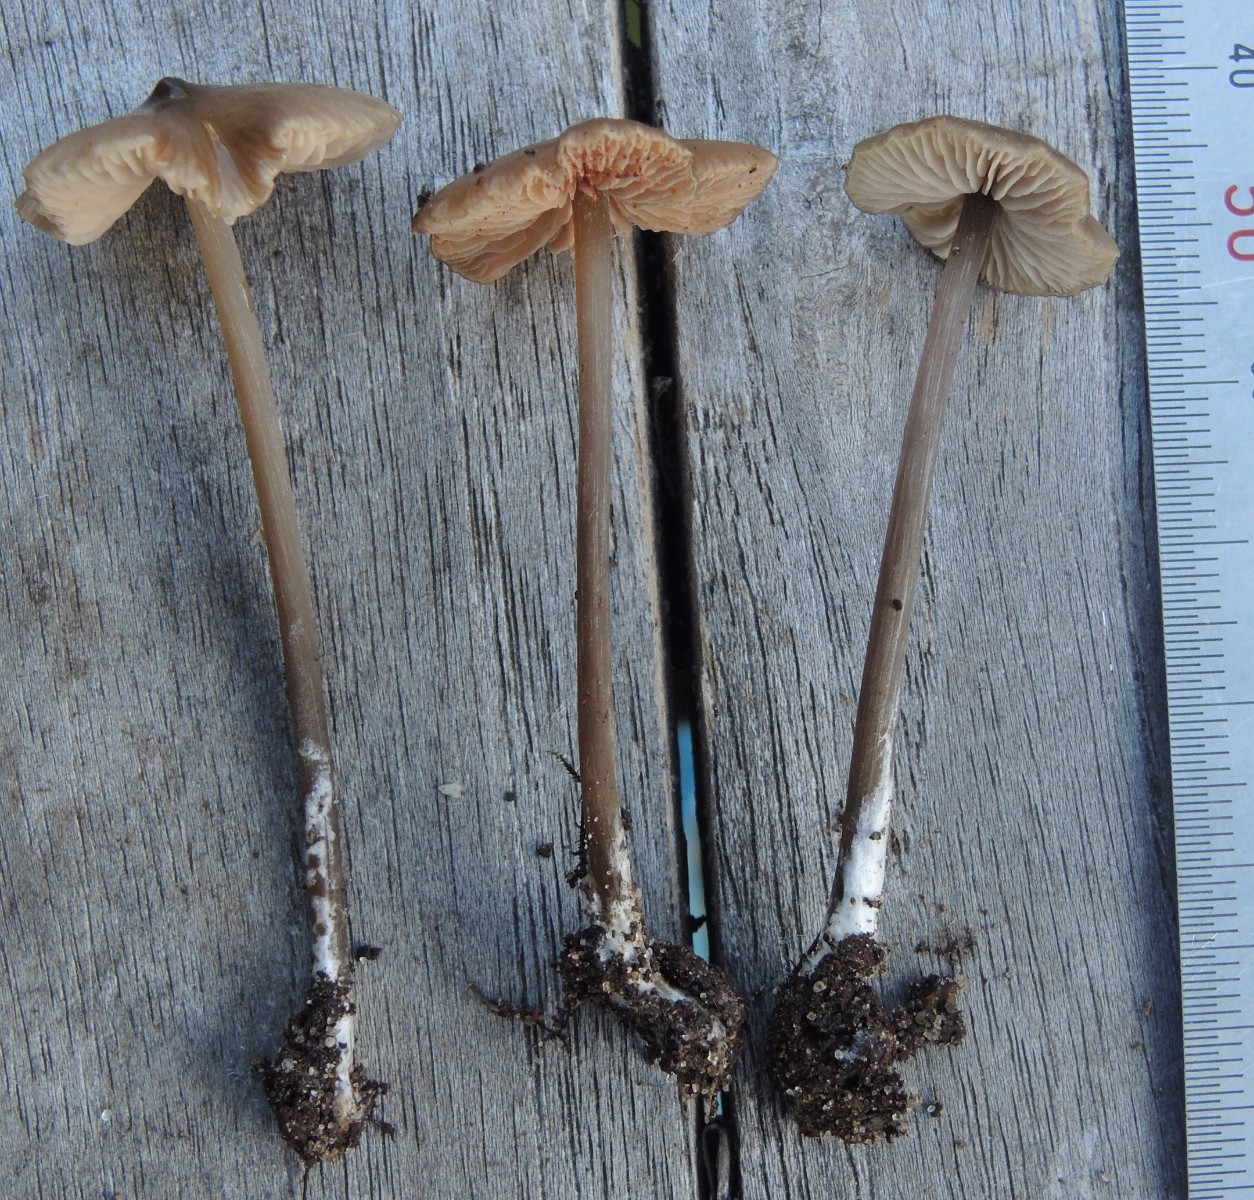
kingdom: Fungi
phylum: Basidiomycota
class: Agaricomycetes
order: Agaricales
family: Entolomataceae
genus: Entoloma
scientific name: Entoloma hebes
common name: krat-rødblad
